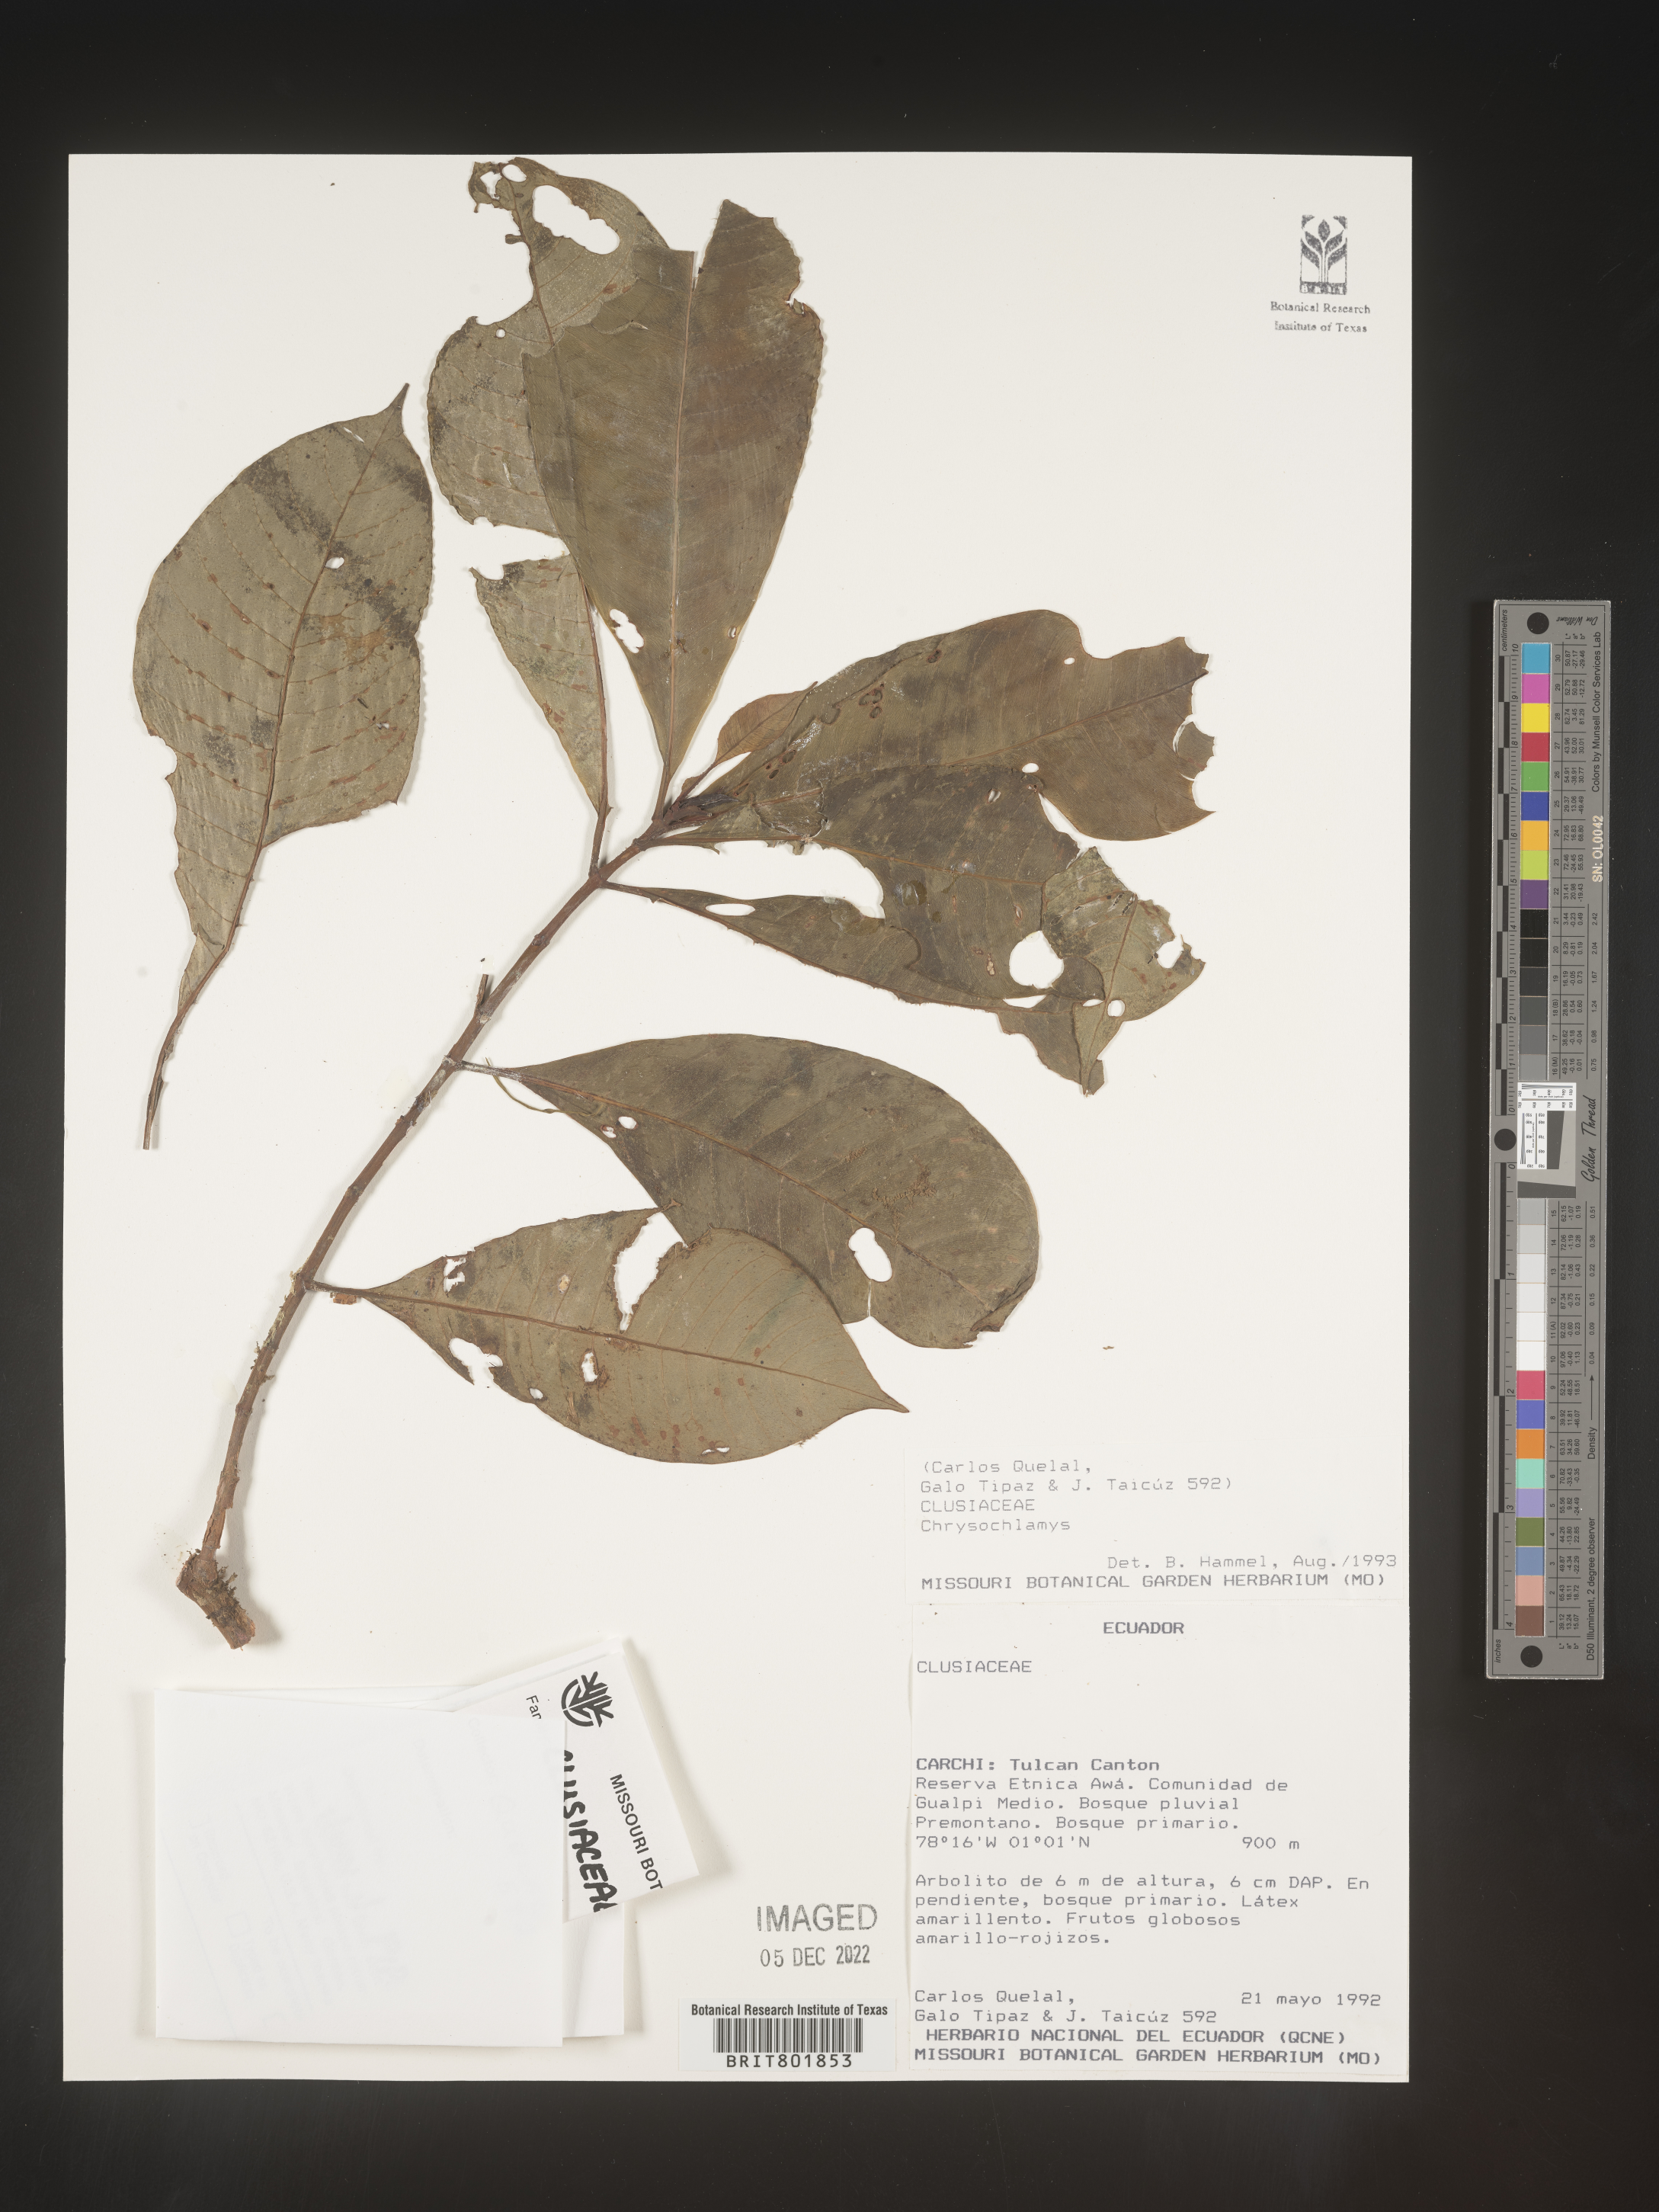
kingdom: Plantae
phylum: Tracheophyta
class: Magnoliopsida
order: Malpighiales
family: Clusiaceae
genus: Chrysochlamys
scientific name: Chrysochlamys
